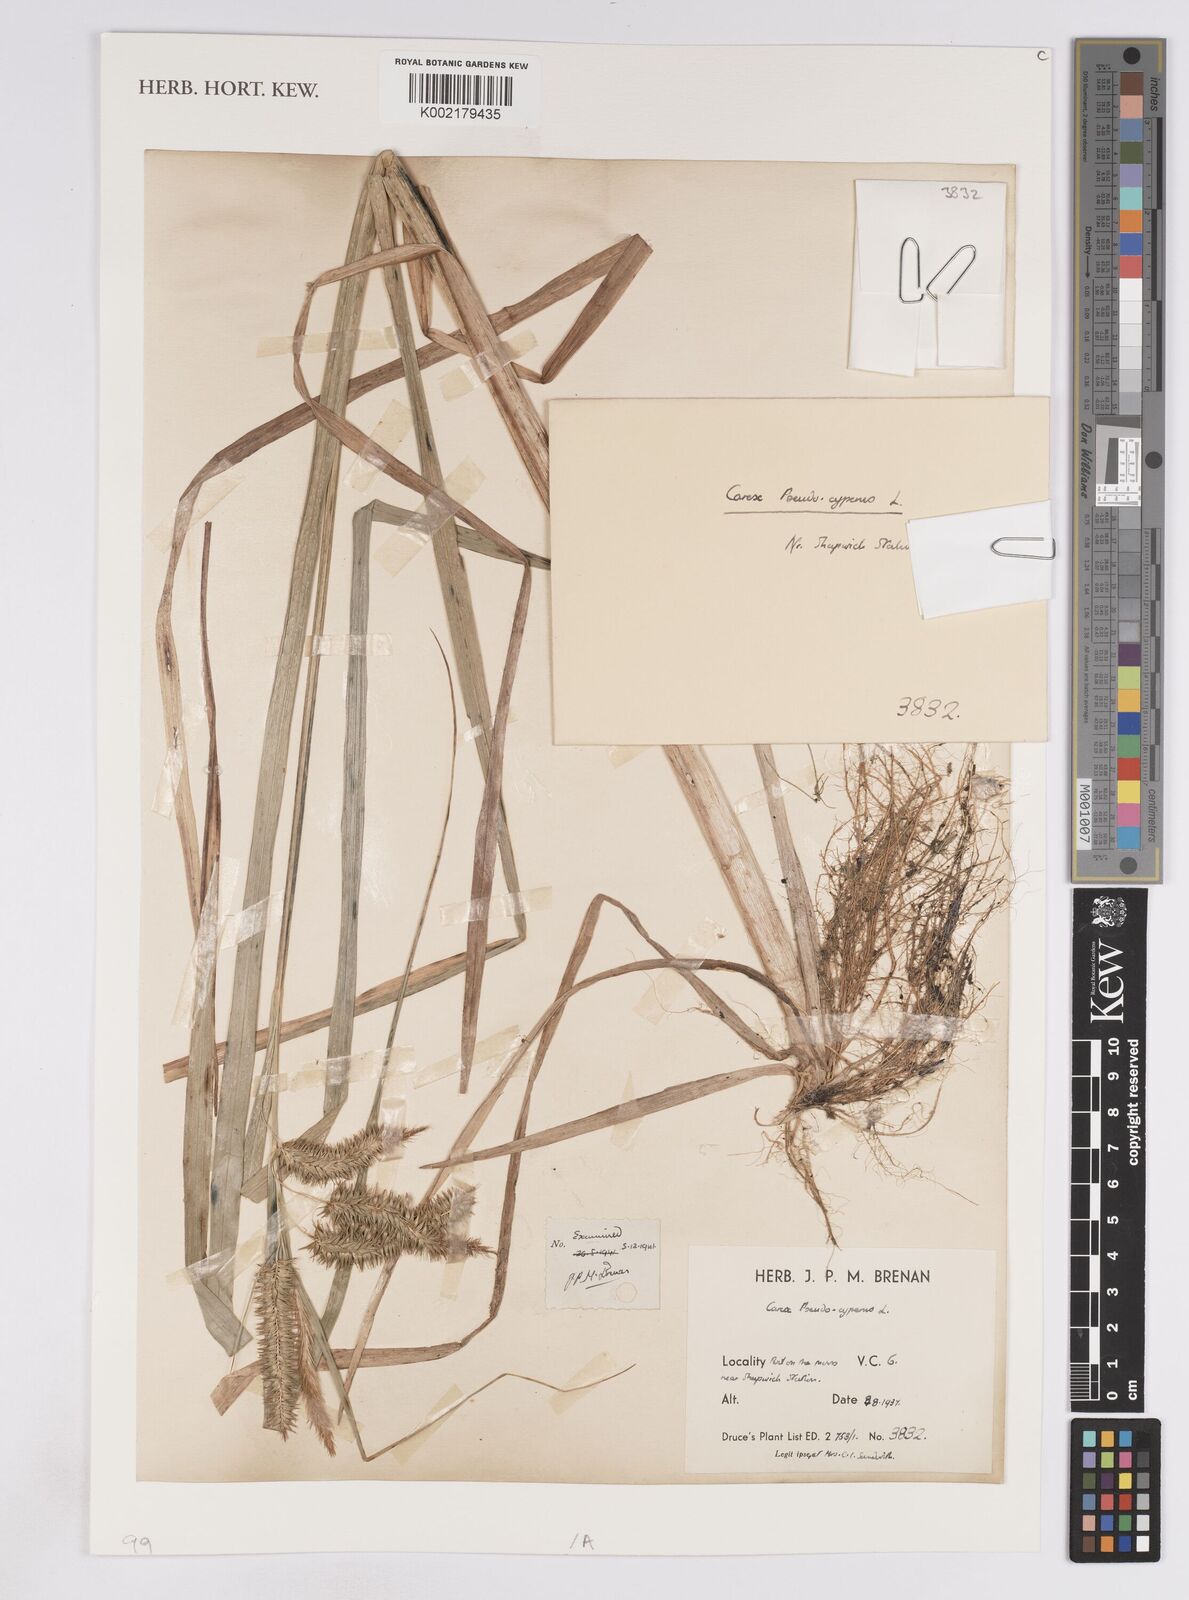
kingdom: Plantae
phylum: Tracheophyta
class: Liliopsida
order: Poales
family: Cyperaceae
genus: Carex
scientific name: Carex pseudocyperus
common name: Cyperus sedge
